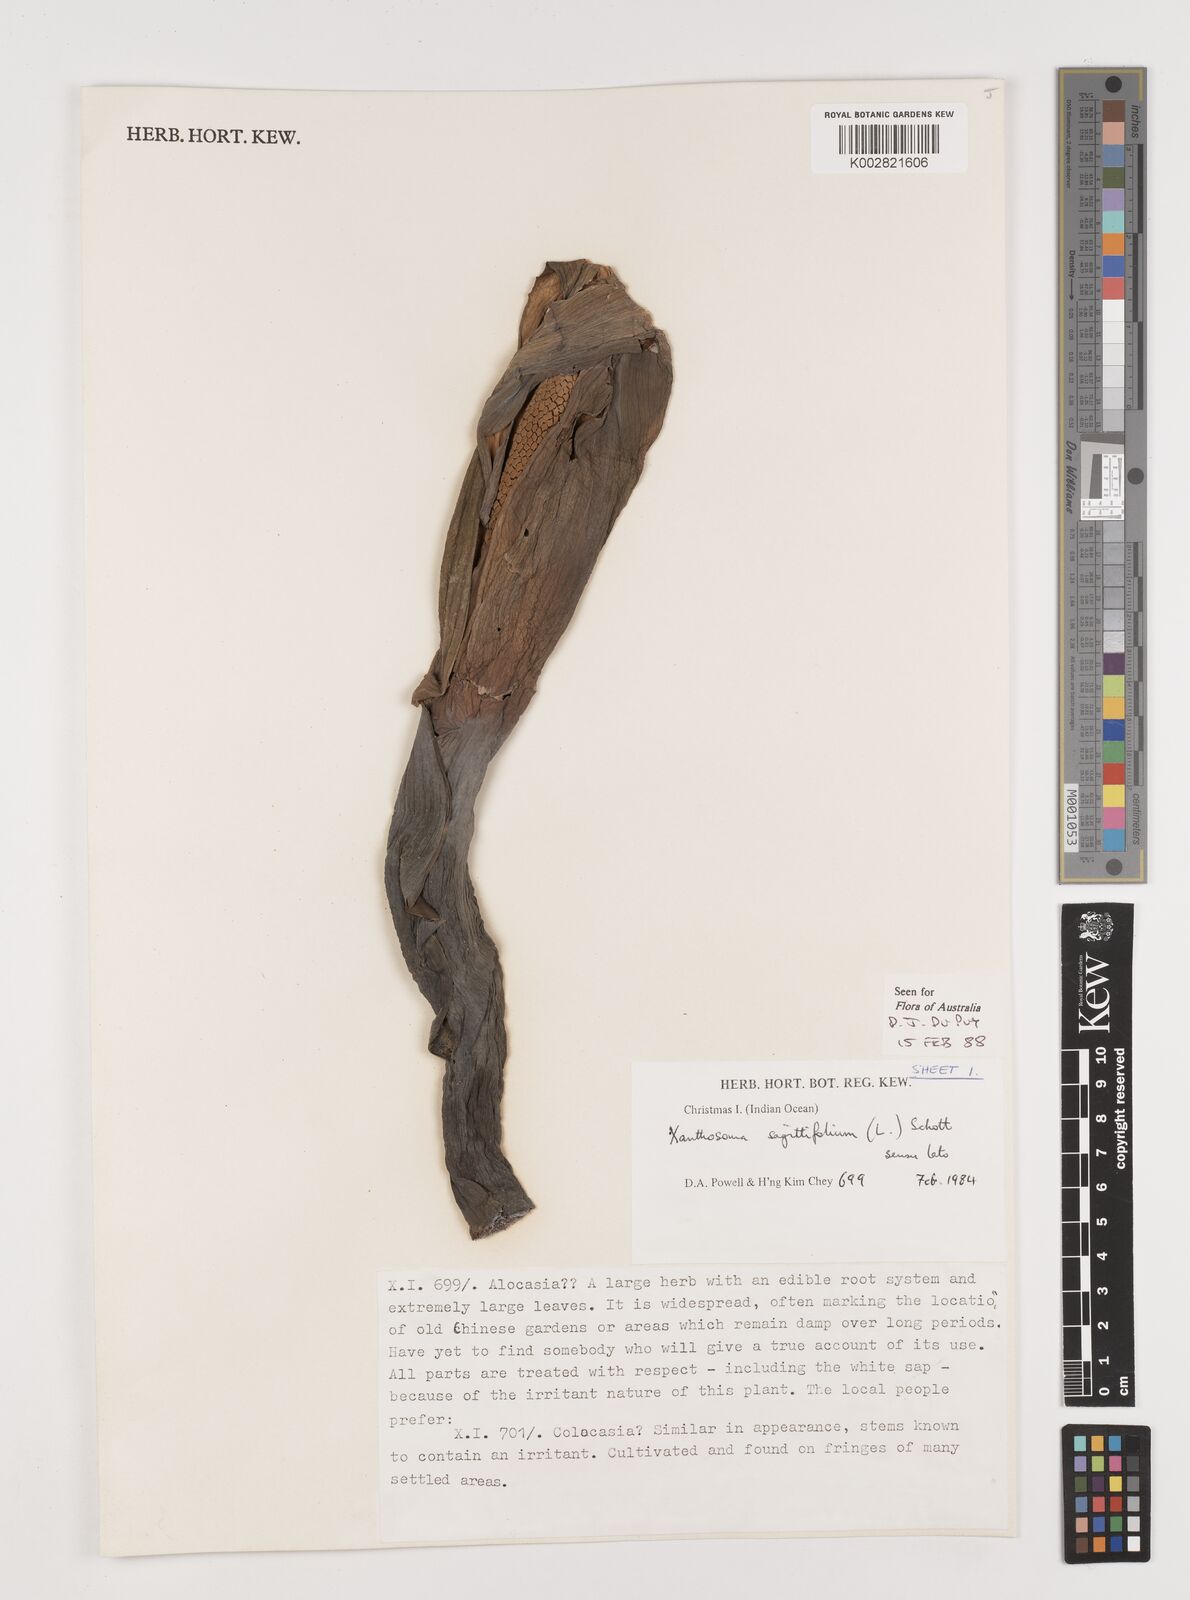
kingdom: Plantae
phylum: Tracheophyta
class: Liliopsida
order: Alismatales
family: Araceae
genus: Xanthosoma
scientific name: Xanthosoma sagittifolium
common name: Arrowleaf elephant's ear
